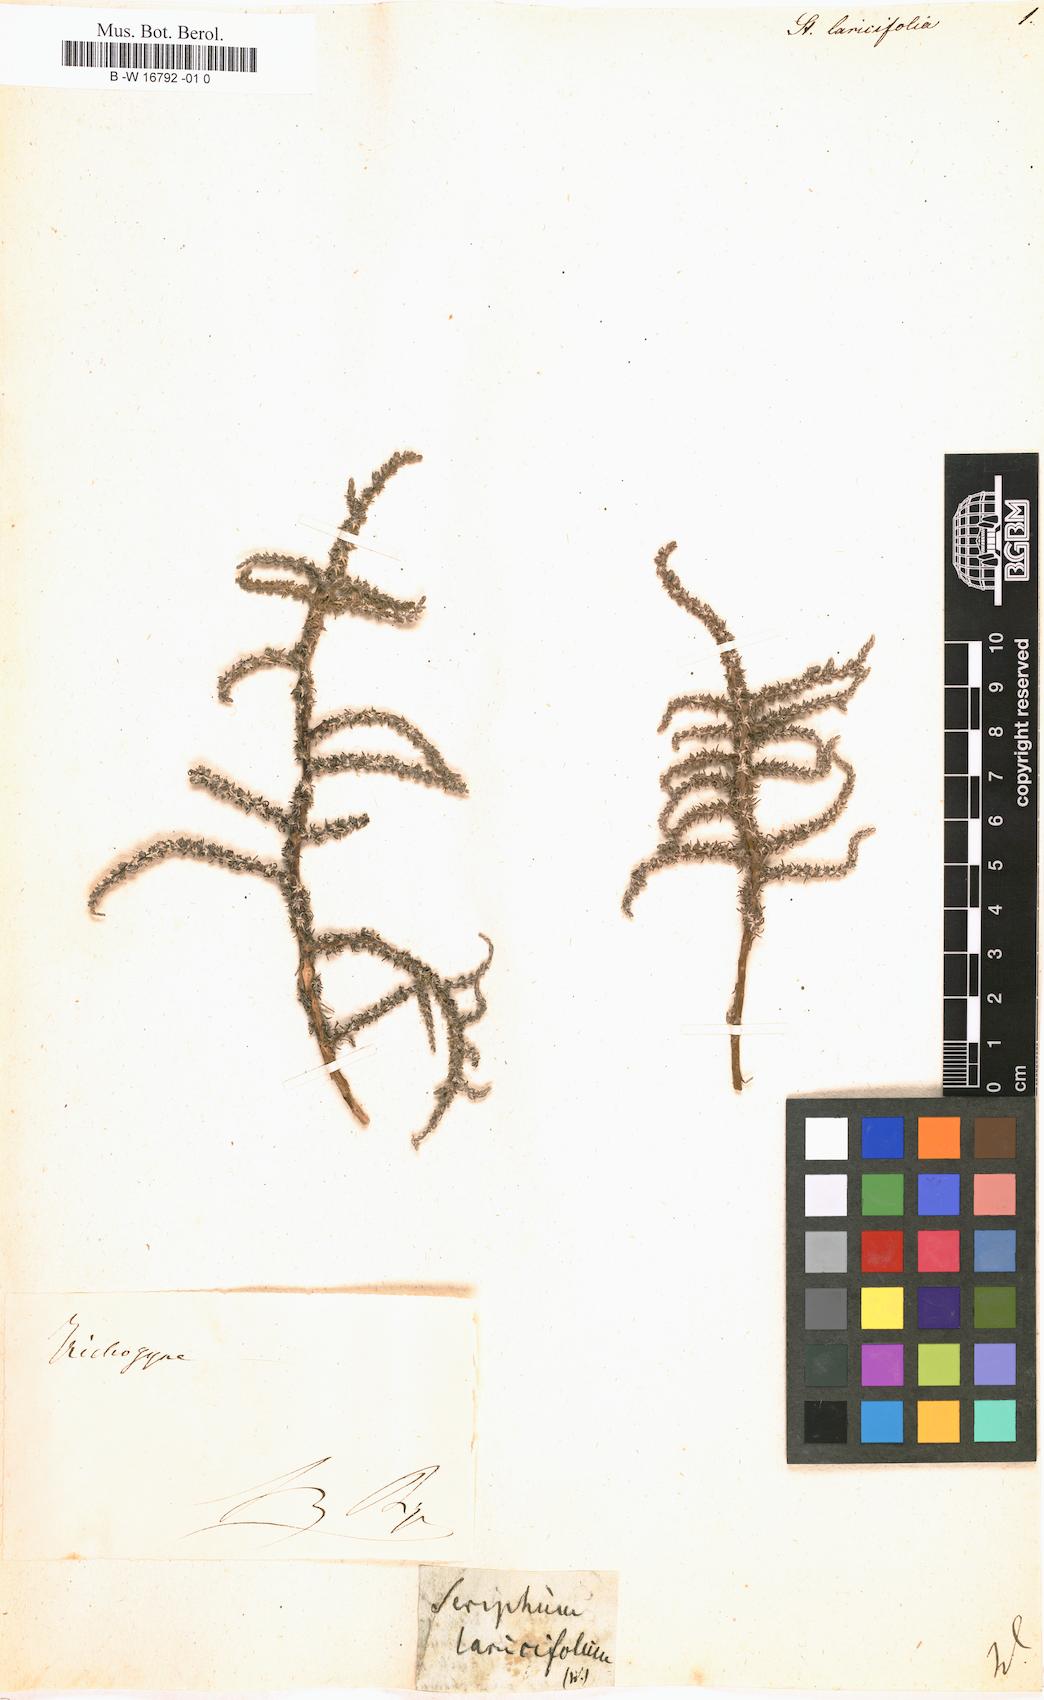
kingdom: Plantae
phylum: Tracheophyta
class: Magnoliopsida
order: Asterales
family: Asteraceae
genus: Ifloga
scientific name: Ifloga ambigua
